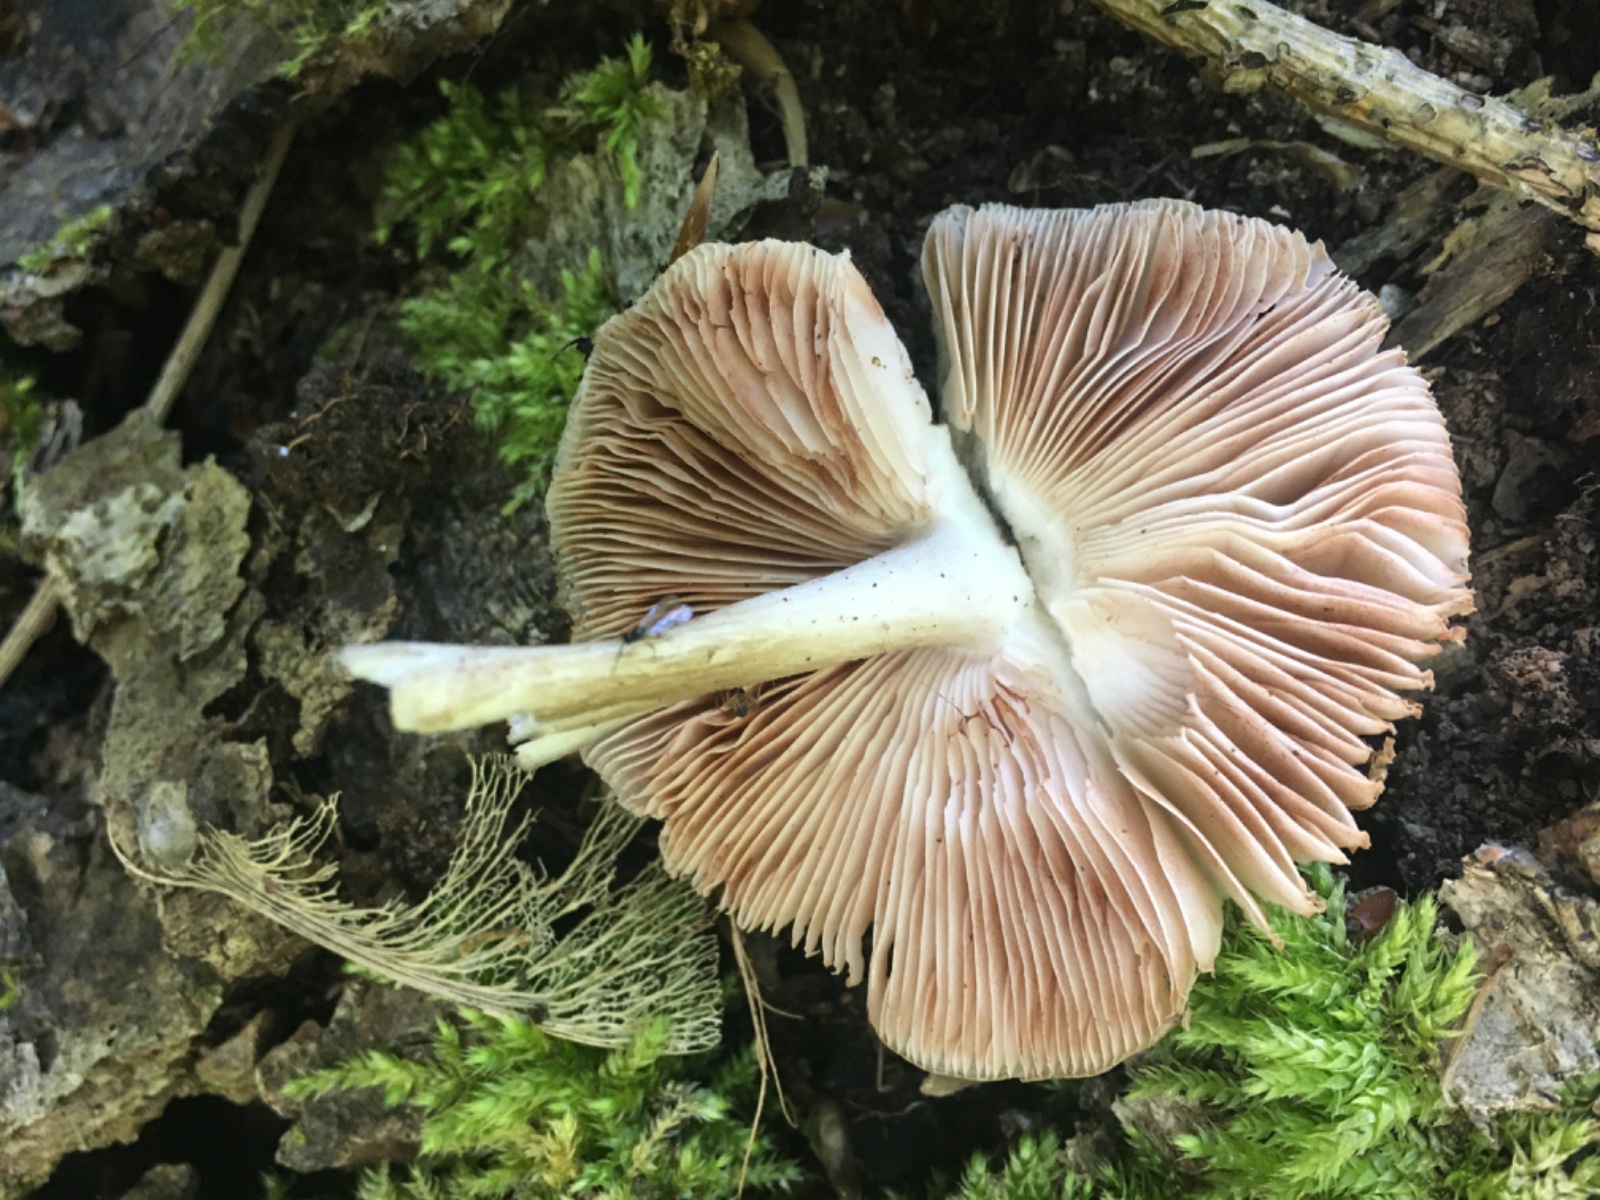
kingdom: Fungi
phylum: Basidiomycota
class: Agaricomycetes
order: Agaricales
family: Pluteaceae
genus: Pluteus
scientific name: Pluteus
